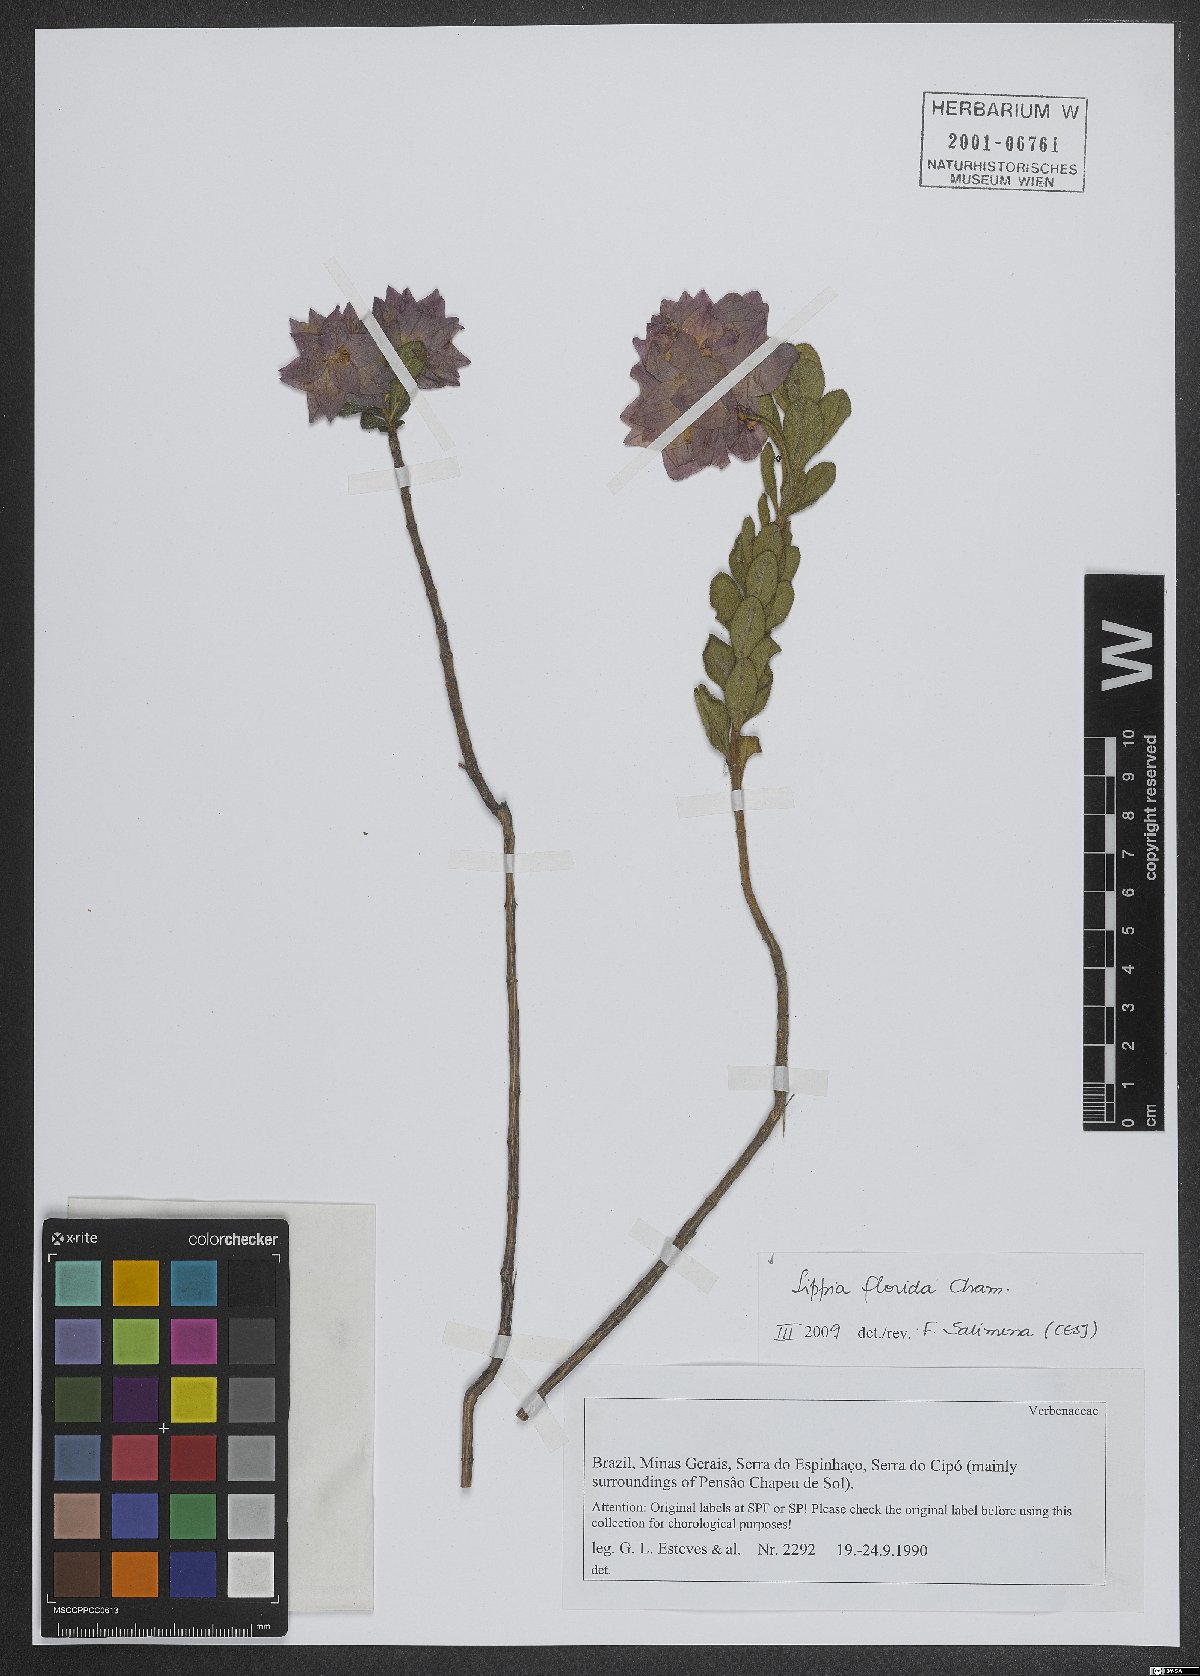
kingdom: Plantae
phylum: Tracheophyta
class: Magnoliopsida
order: Lamiales
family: Verbenaceae
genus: Lippia
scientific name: Lippia florida
